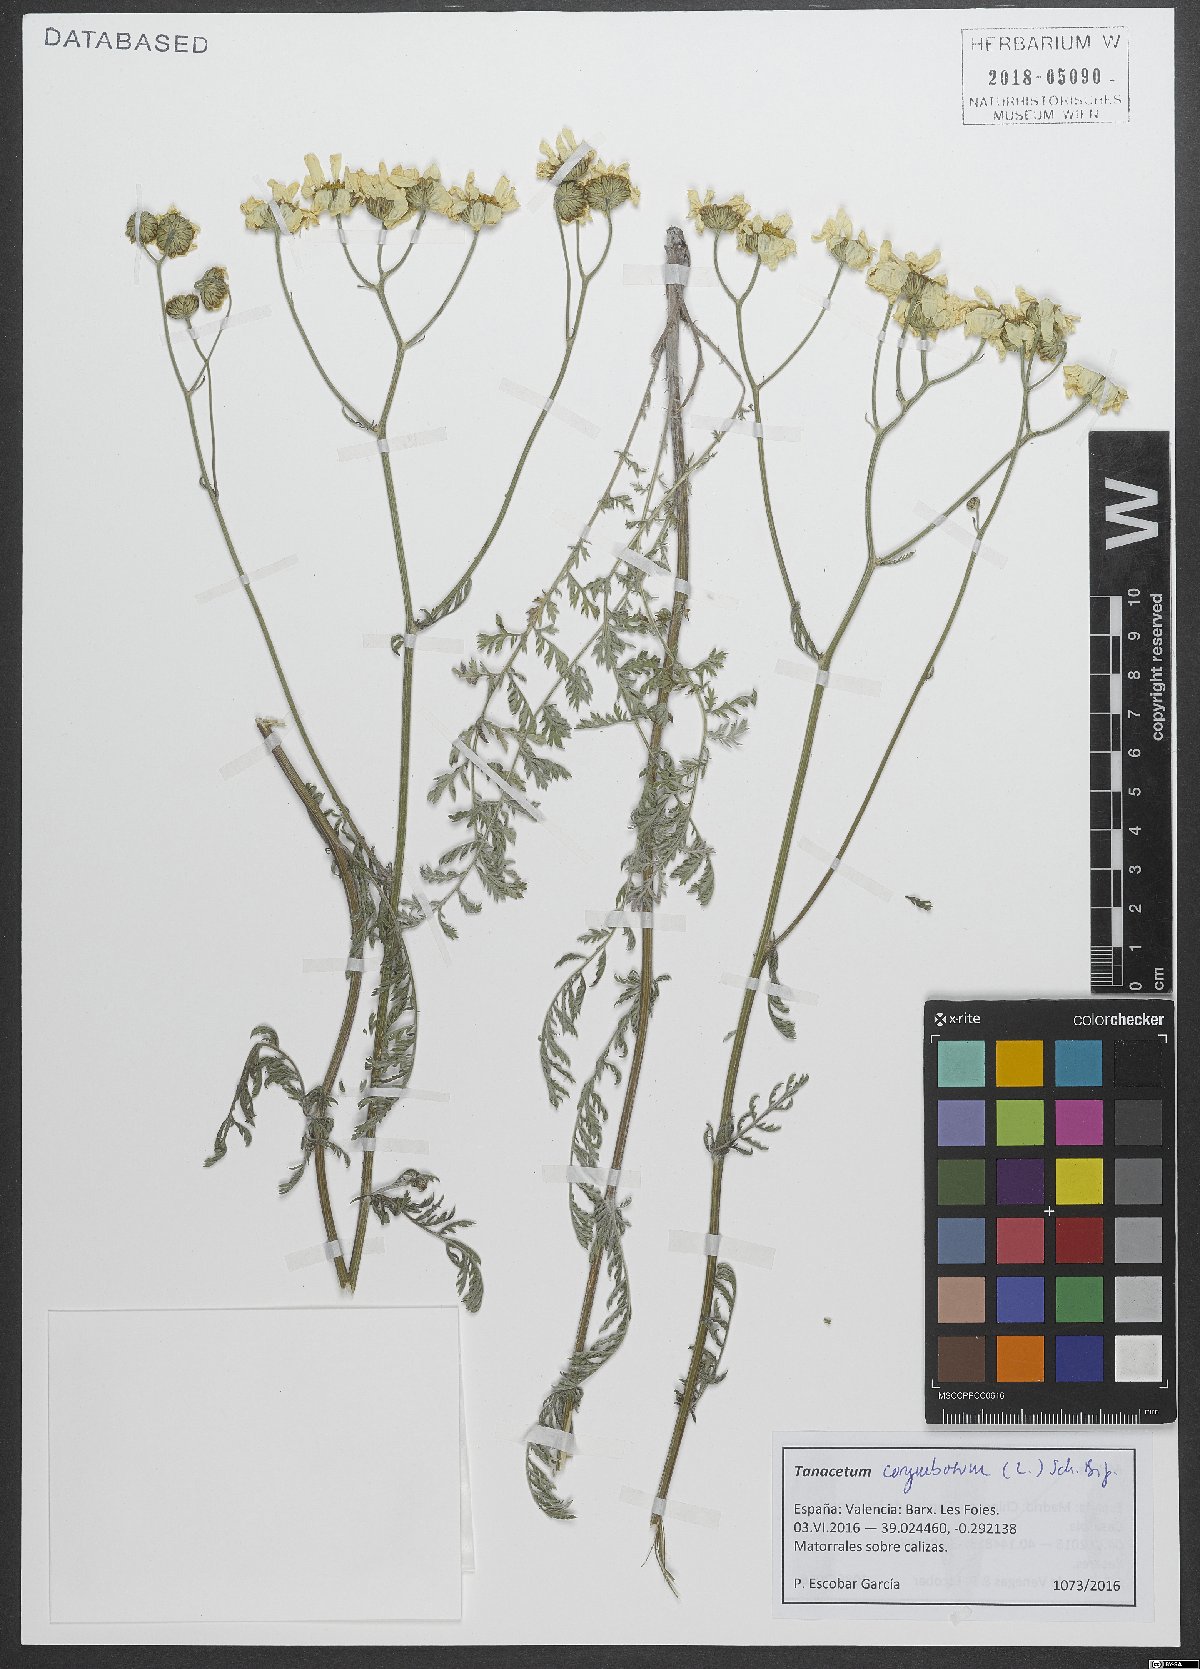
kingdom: Plantae
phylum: Tracheophyta
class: Magnoliopsida
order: Asterales
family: Asteraceae
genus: Tanacetum
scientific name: Tanacetum corymbosum
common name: Scentless feverfew
